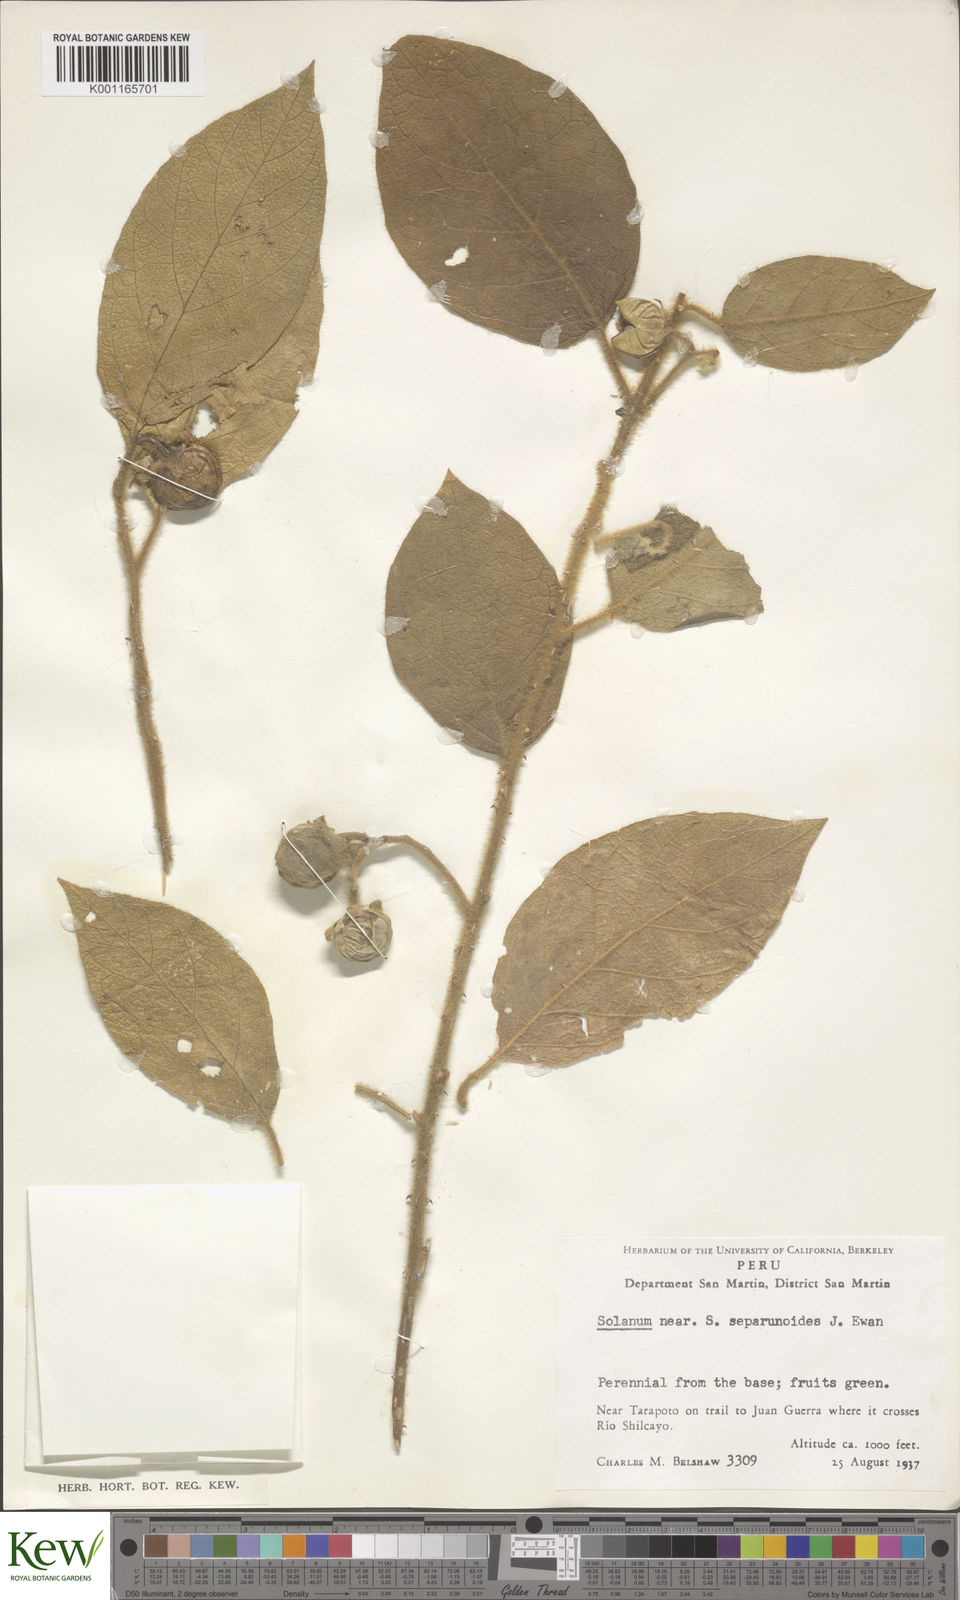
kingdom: Plantae
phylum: Tracheophyta
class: Magnoliopsida
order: Solanales
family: Solanaceae
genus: Solanum
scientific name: Solanum aturense
